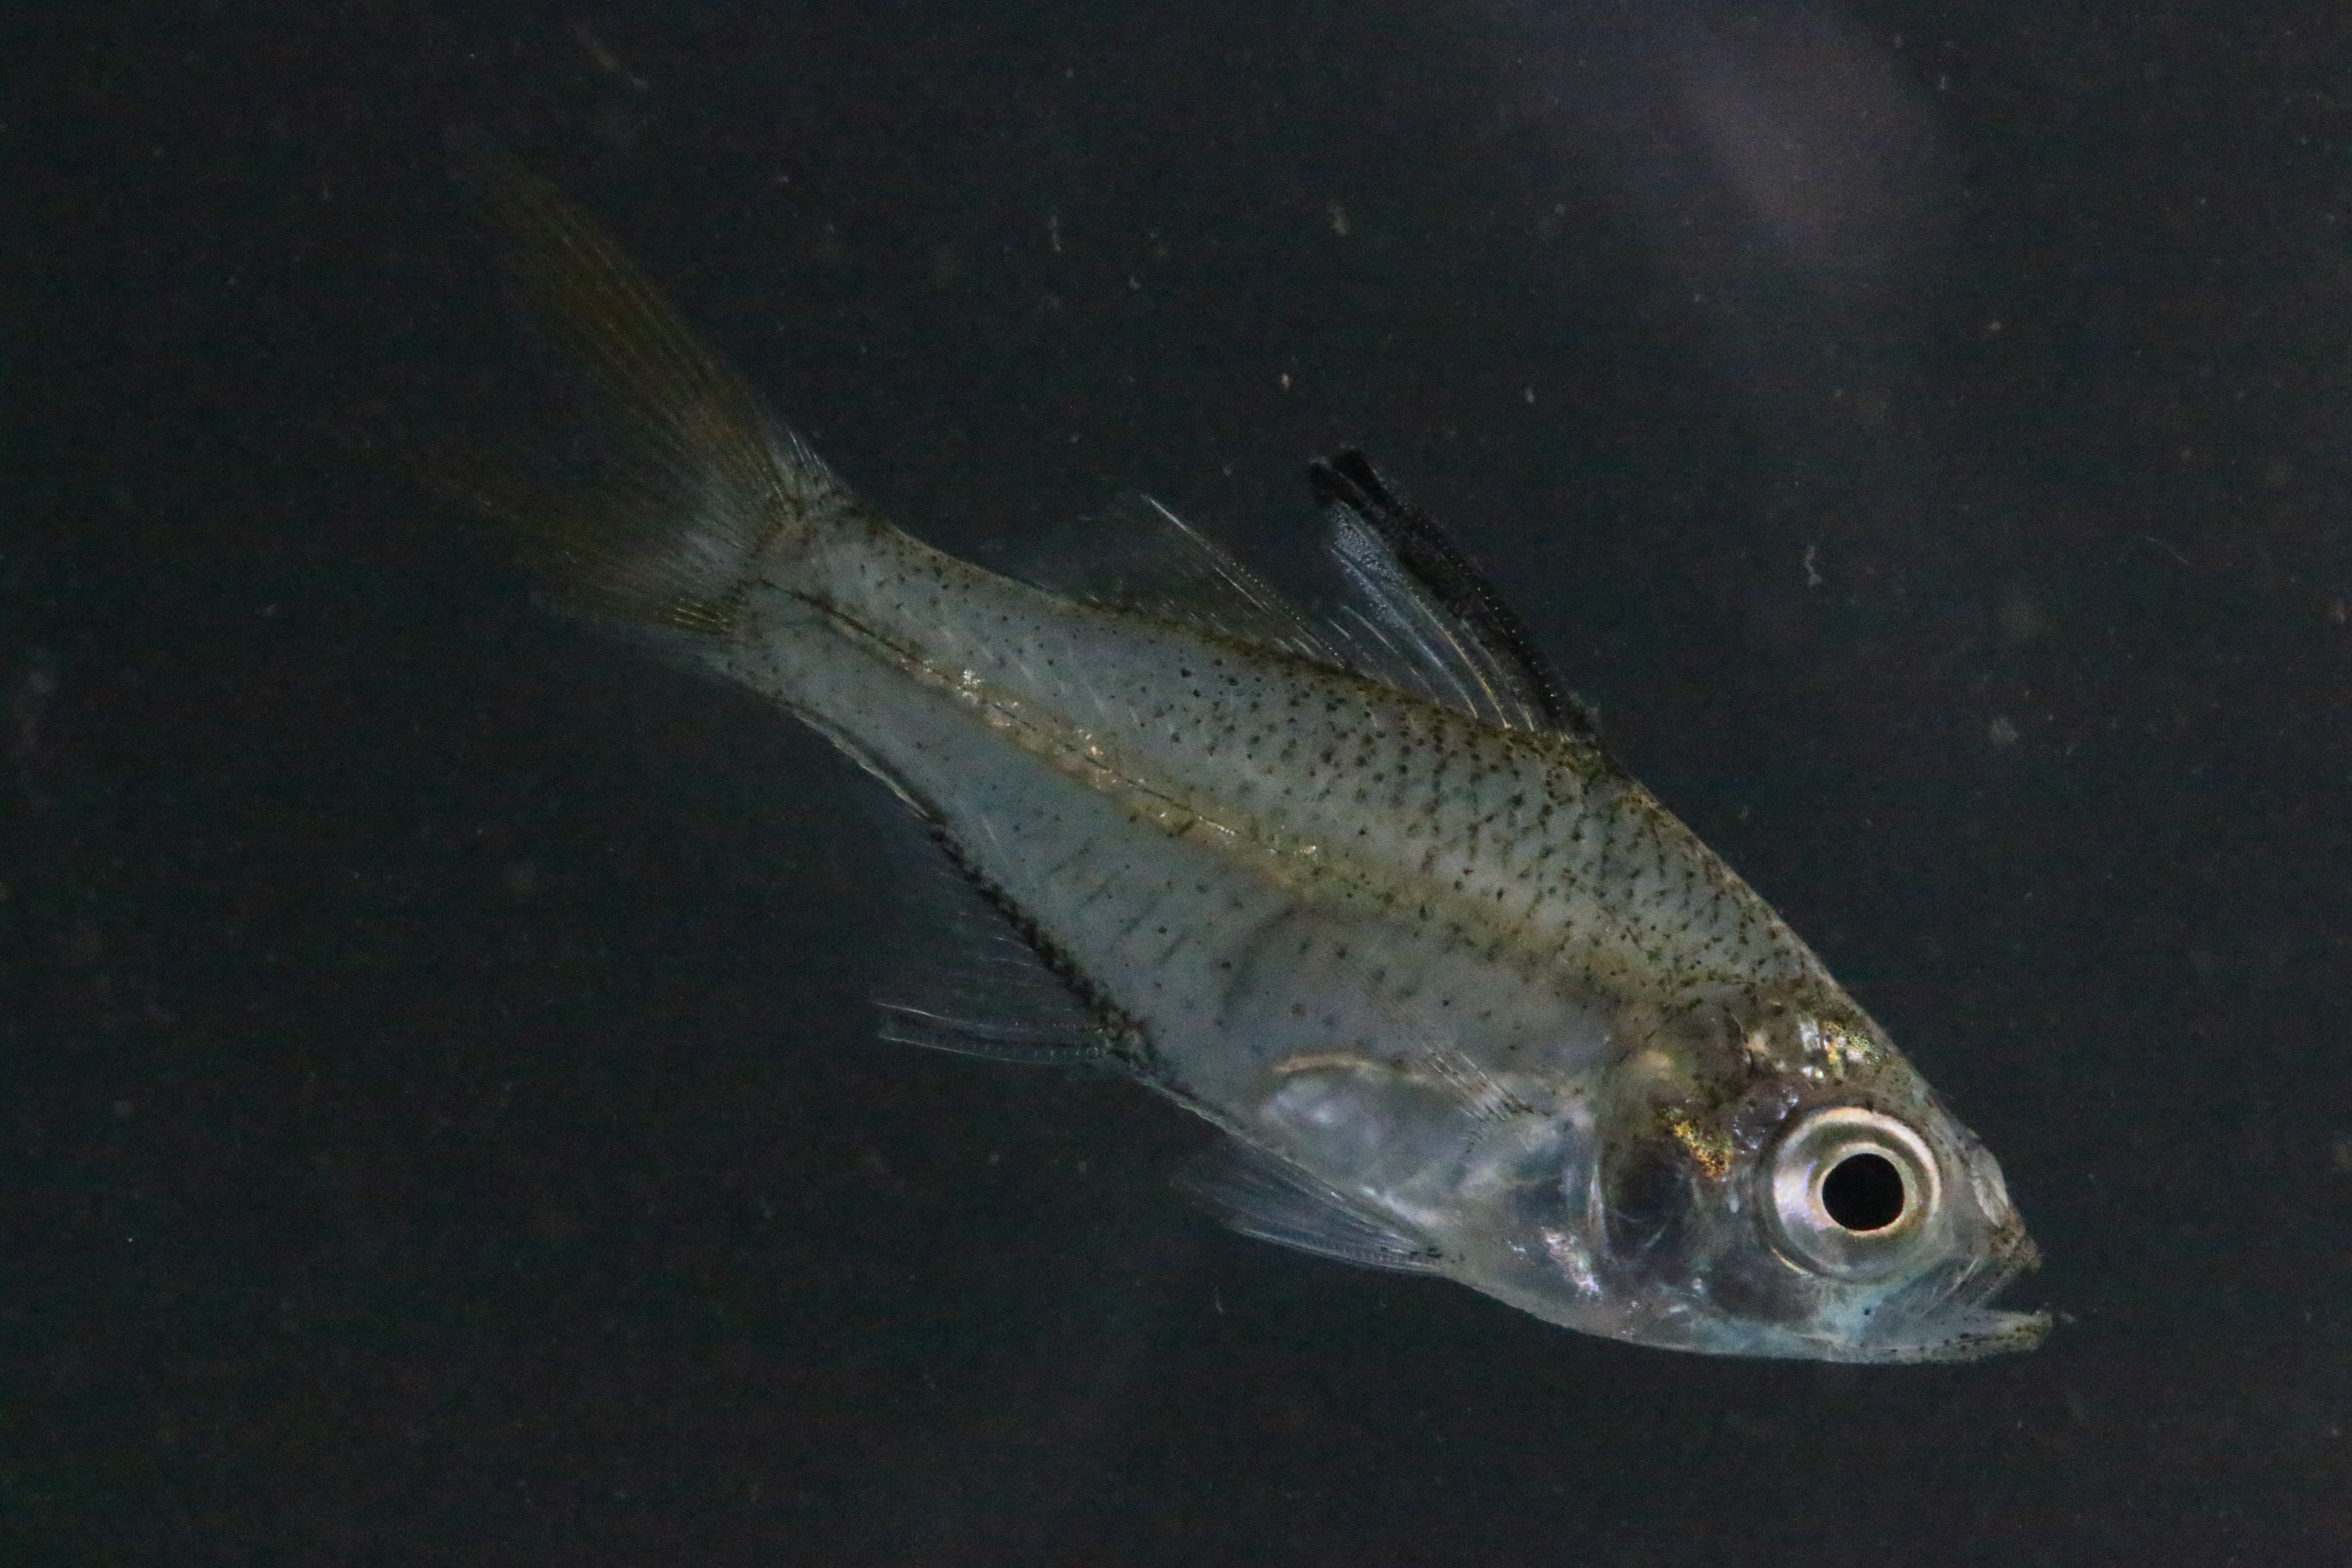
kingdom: Animalia
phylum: Chordata
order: Perciformes
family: Ambassidae
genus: Ambassis
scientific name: Ambassis natalensis
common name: Slender glassy
